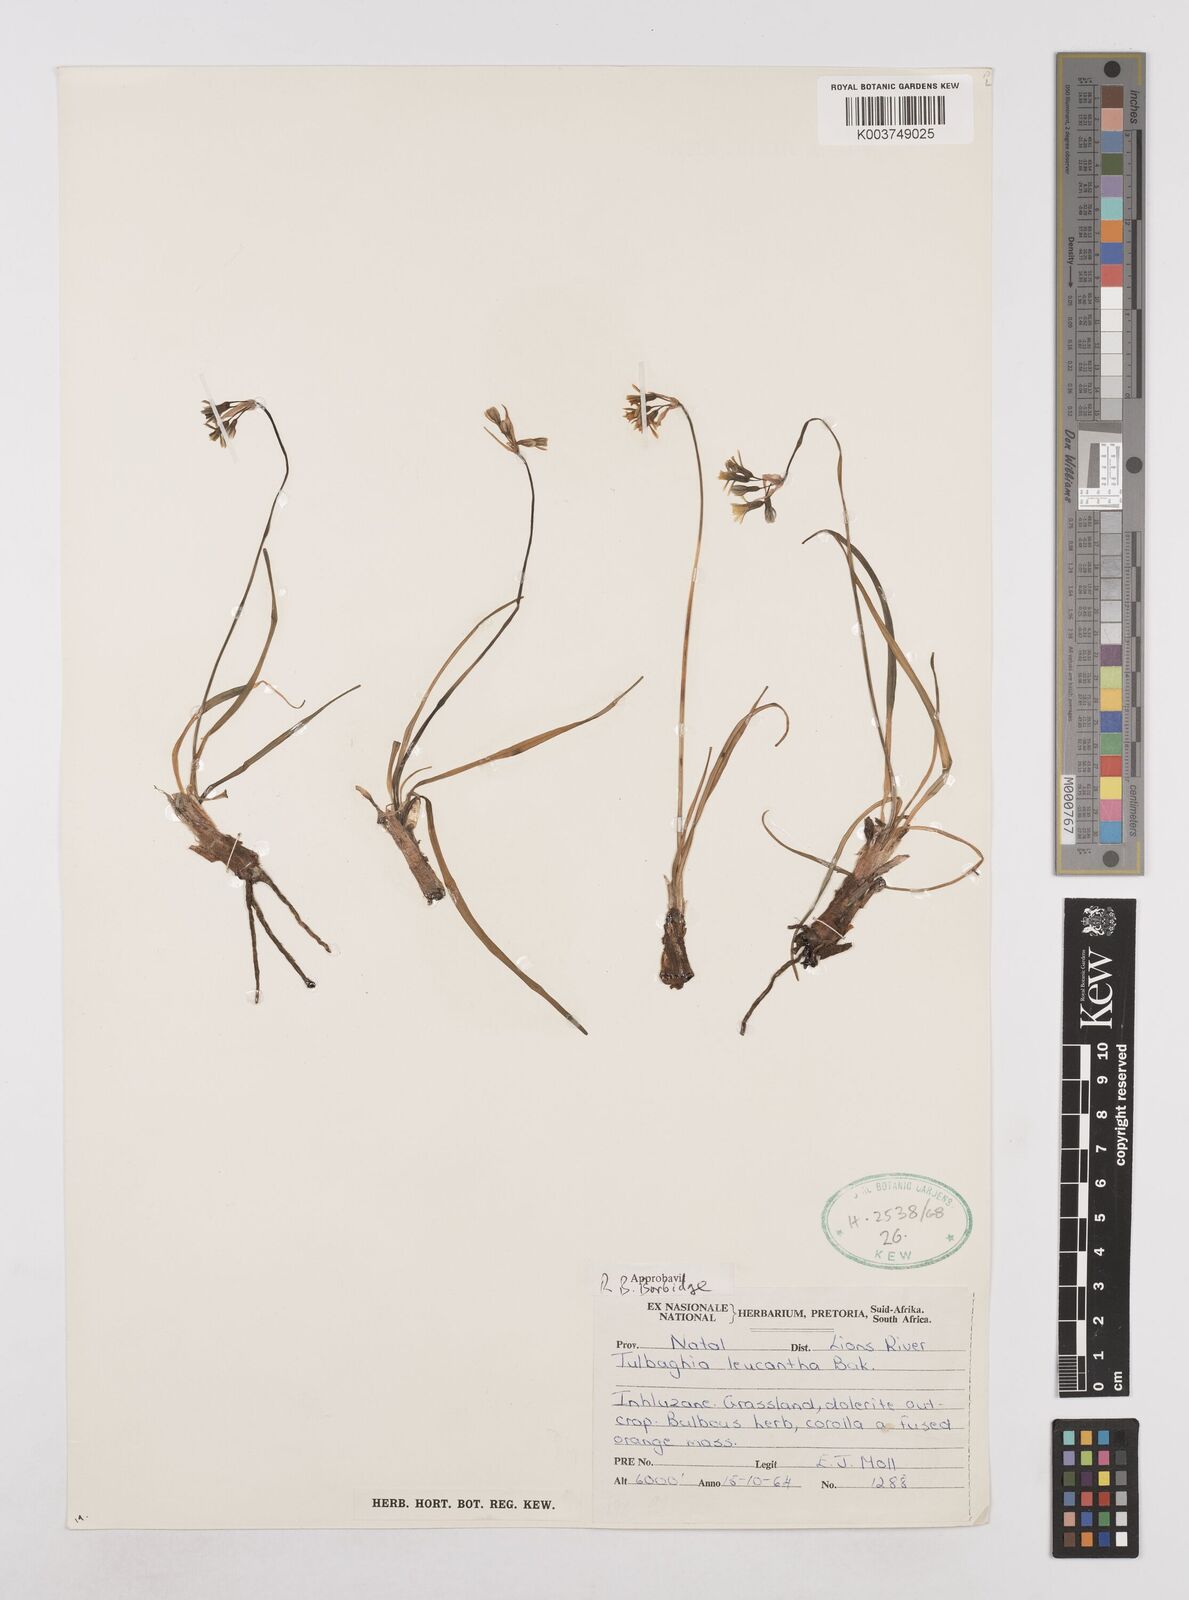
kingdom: Plantae
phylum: Tracheophyta
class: Liliopsida
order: Asparagales
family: Amaryllidaceae
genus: Tulbaghia
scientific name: Tulbaghia leucantha
